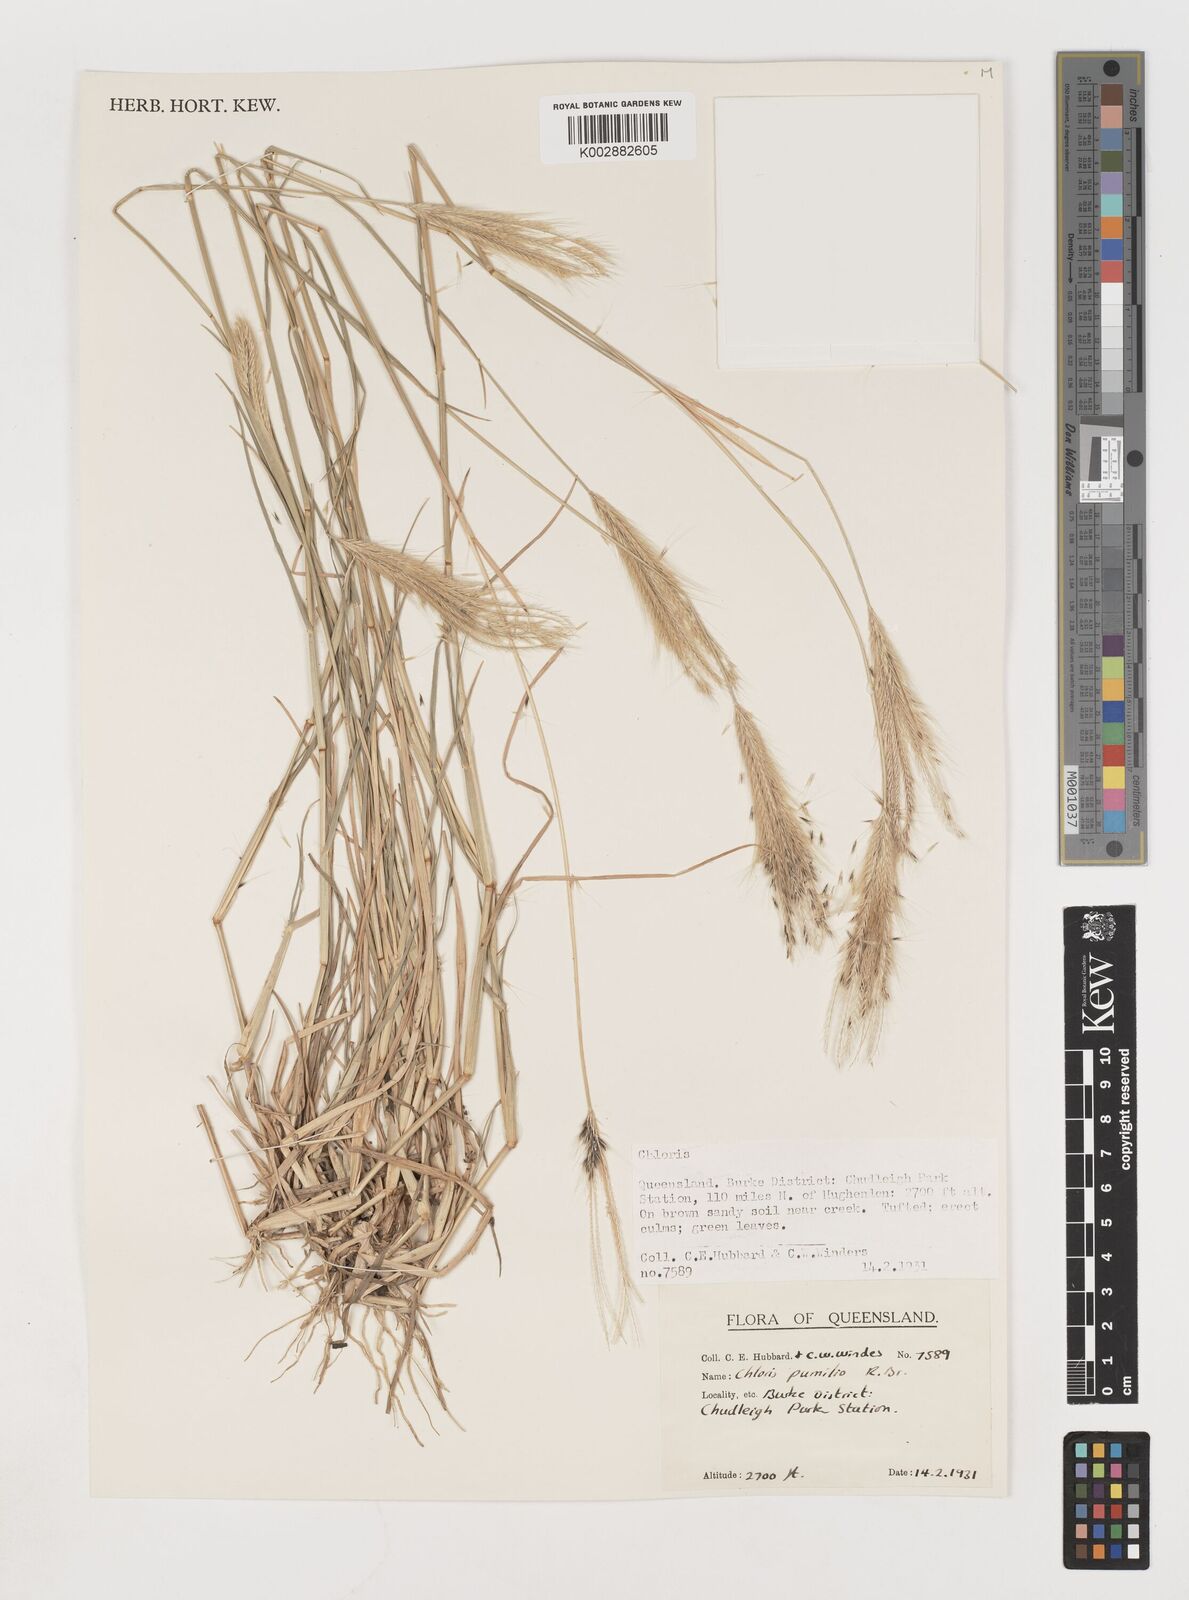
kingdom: Plantae
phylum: Tracheophyta
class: Liliopsida
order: Poales
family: Poaceae
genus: Chloris
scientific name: Chloris pumilio
